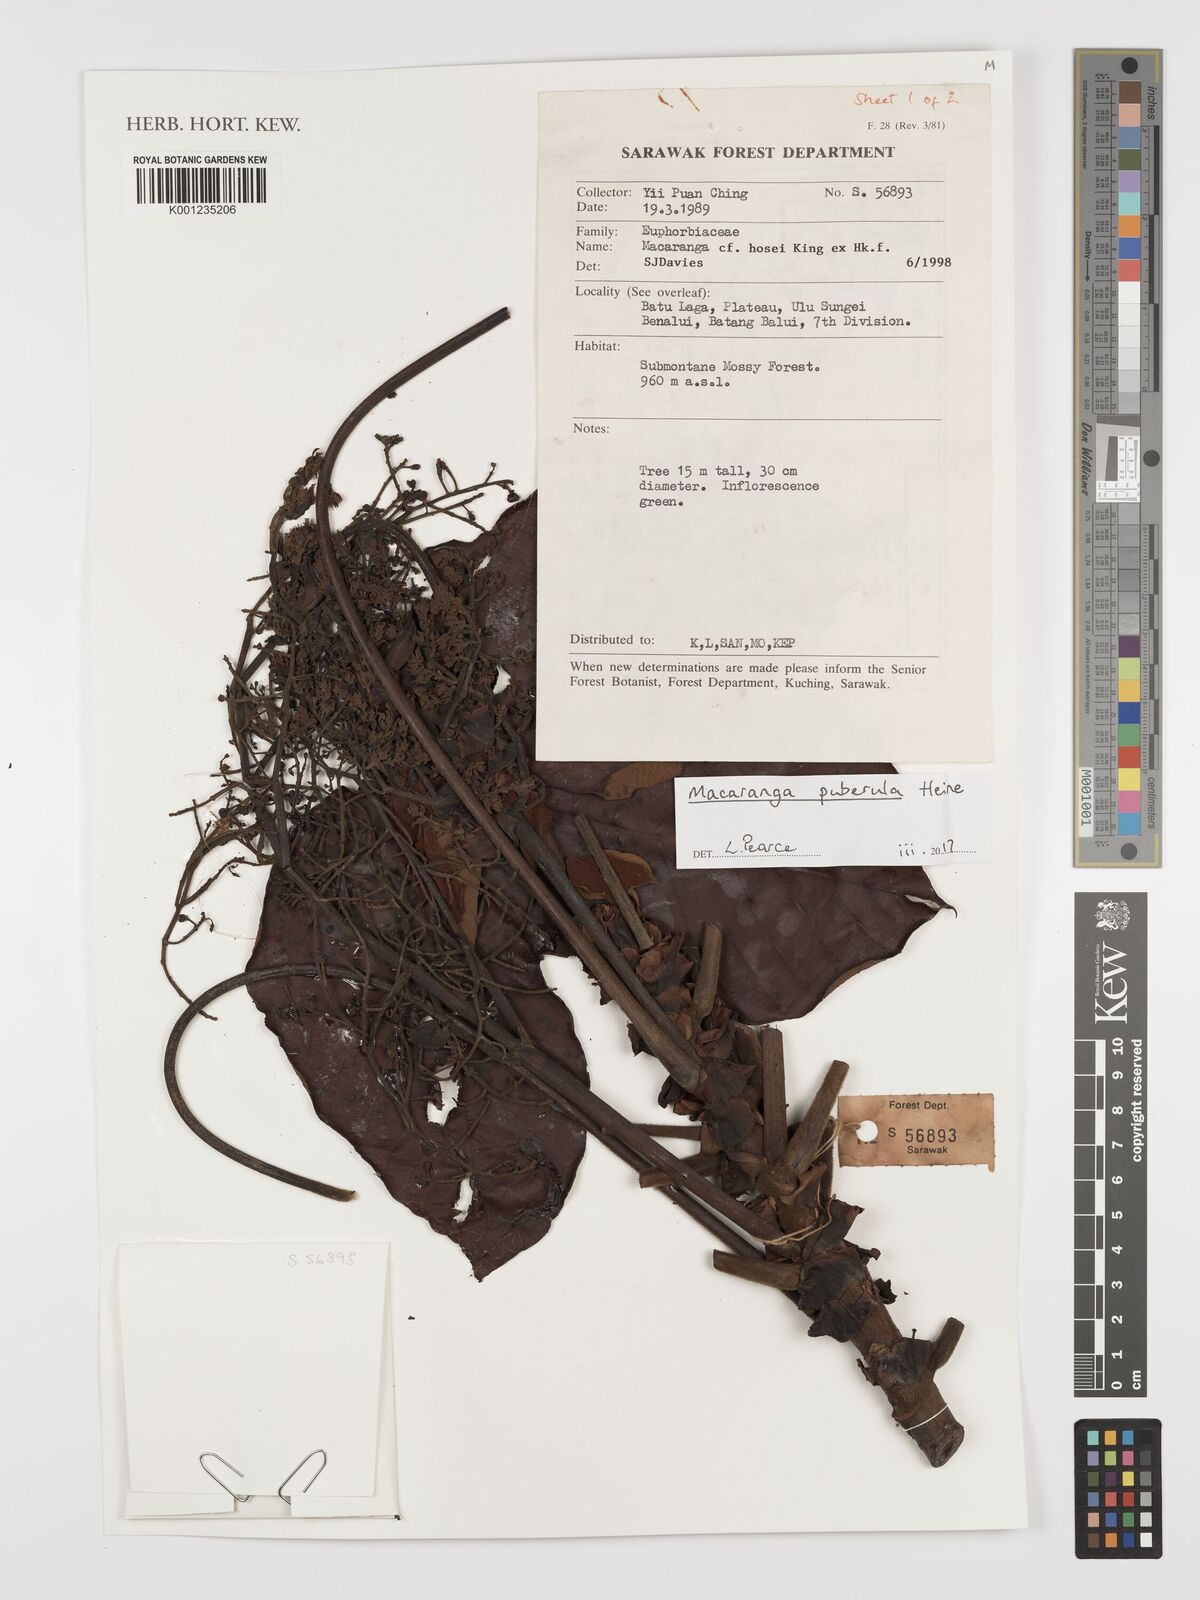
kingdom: Plantae
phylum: Tracheophyta
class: Magnoliopsida
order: Malpighiales
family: Euphorbiaceae
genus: Macaranga
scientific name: Macaranga puberula
